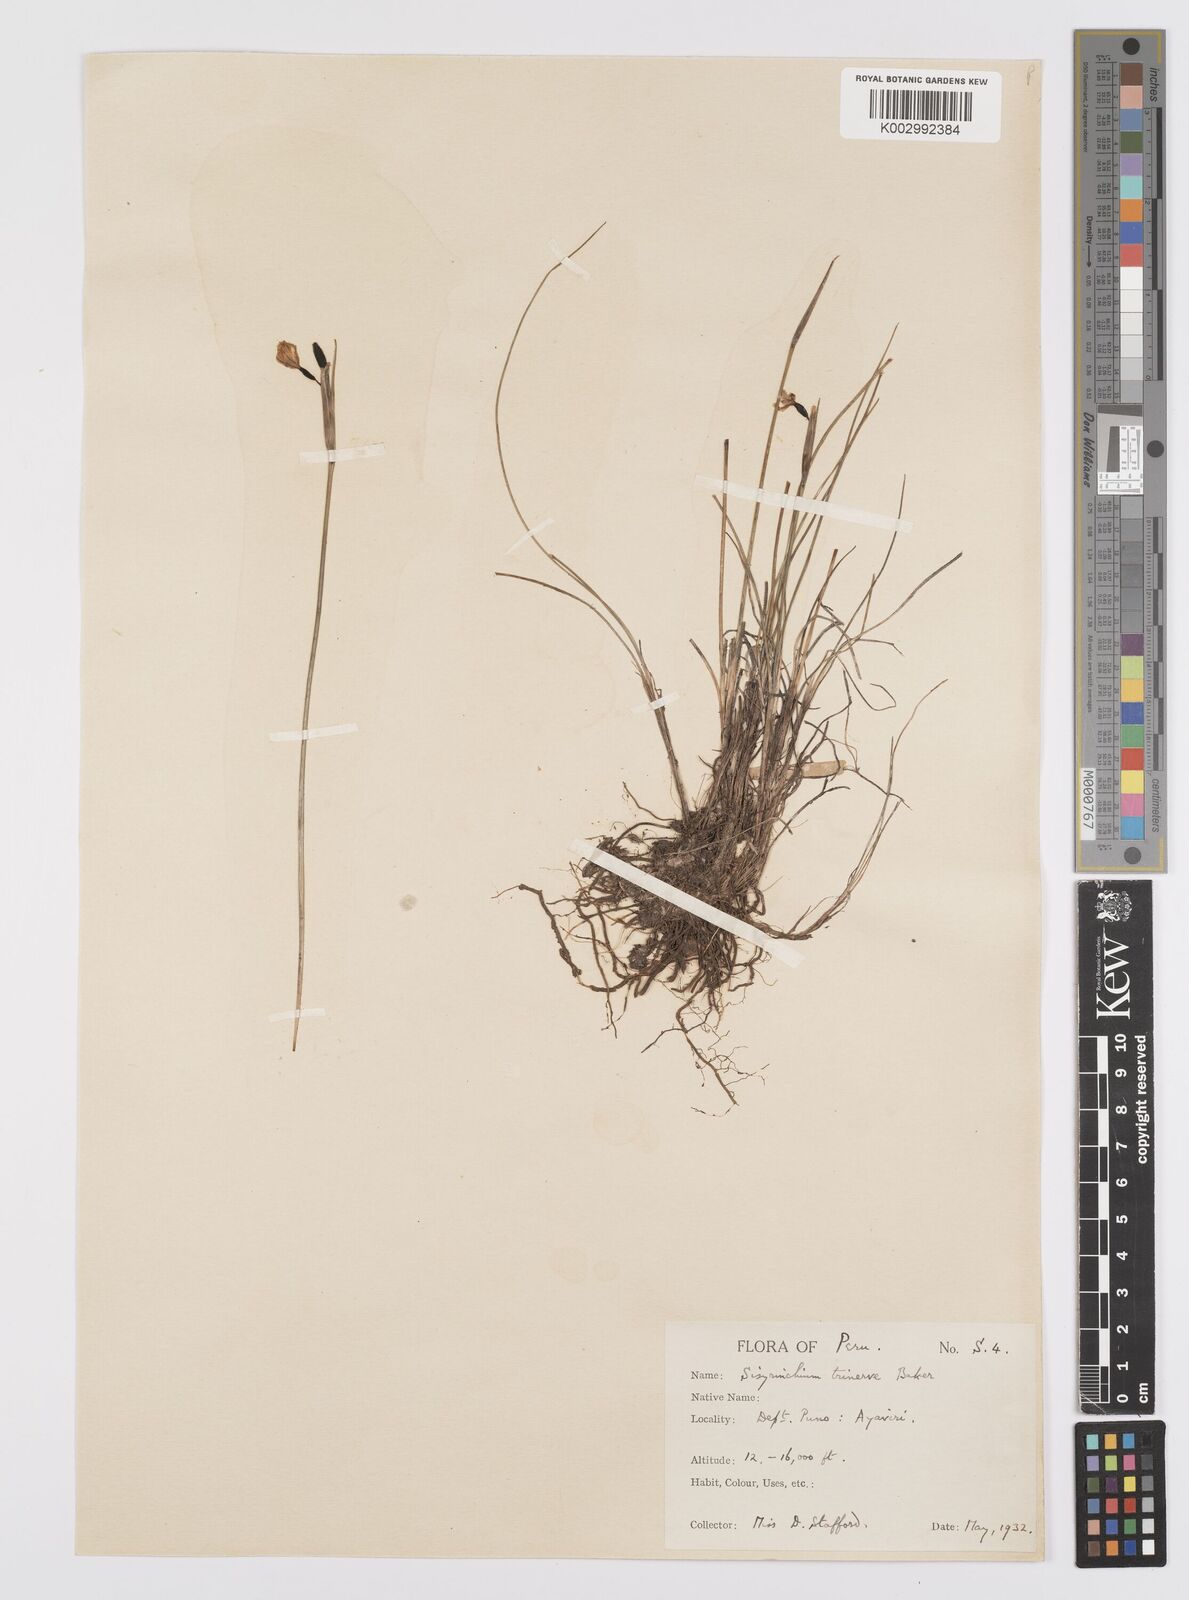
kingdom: Plantae
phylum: Tracheophyta
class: Liliopsida
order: Asparagales
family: Iridaceae
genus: Olsynium
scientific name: Olsynium trinerve
